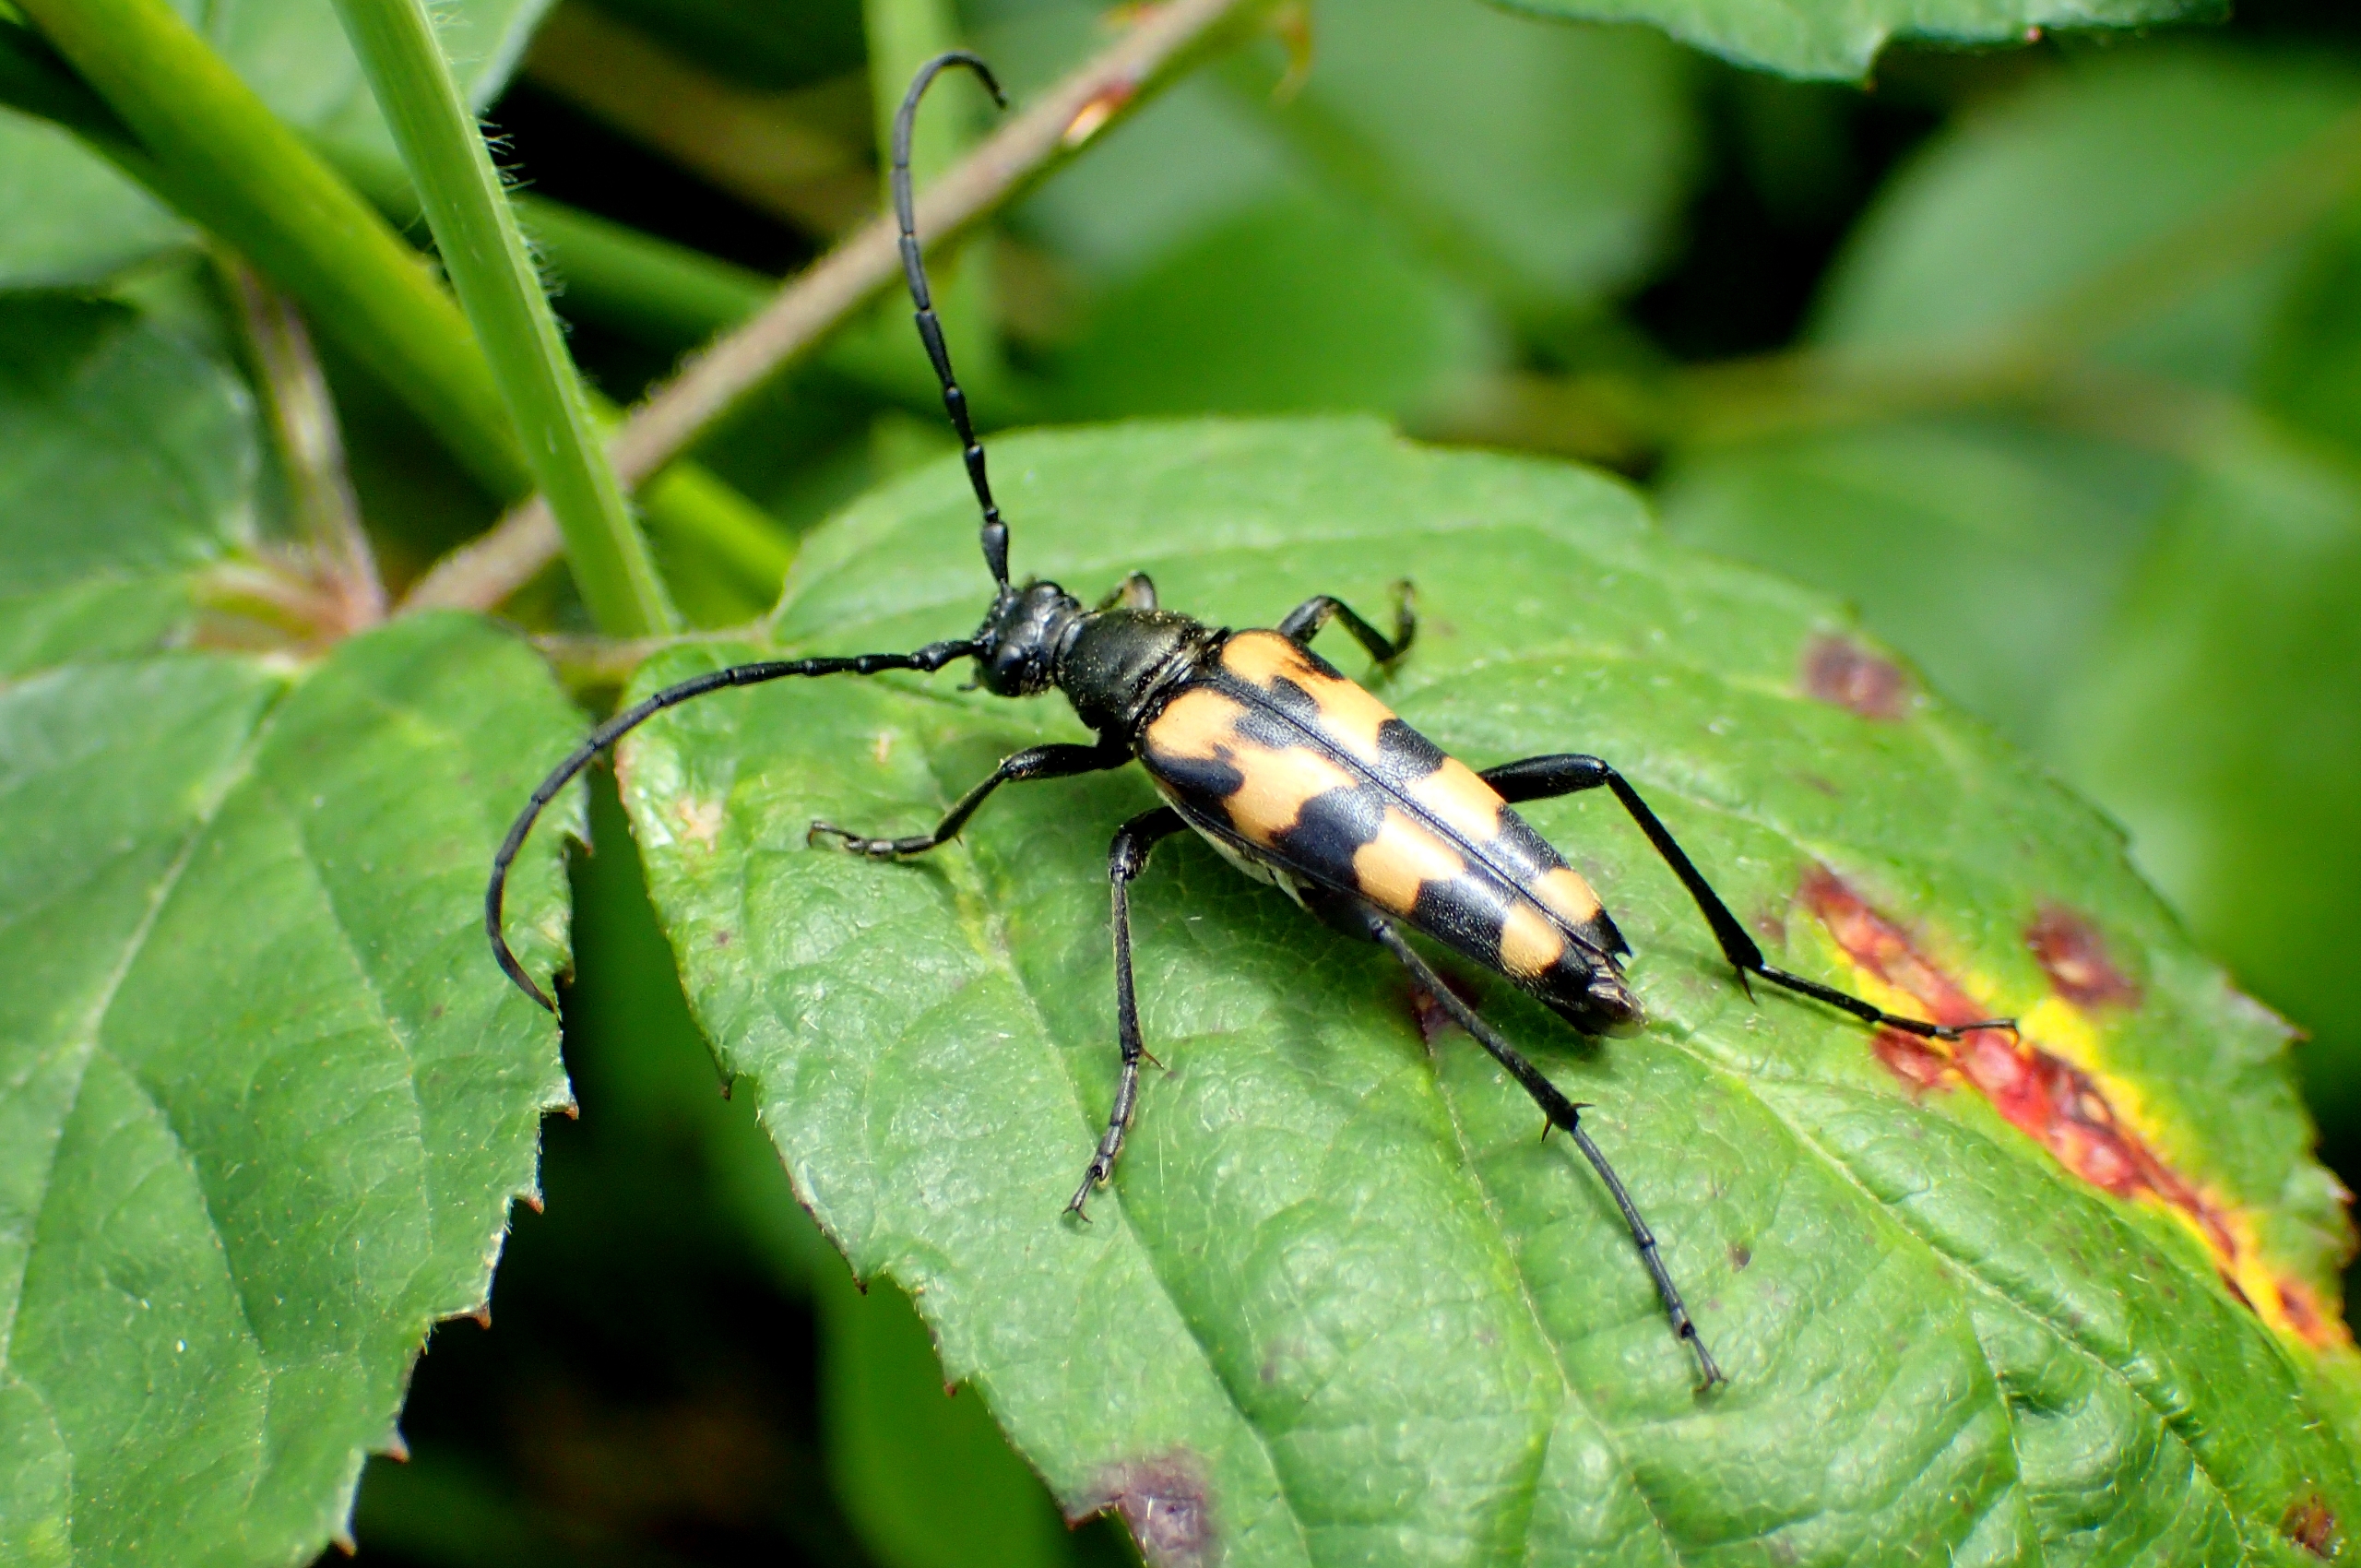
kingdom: Animalia
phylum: Arthropoda
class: Insecta
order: Coleoptera
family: Cerambycidae
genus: Leptura
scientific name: Leptura quadrifasciata
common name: Firebåndet blomsterbuk
